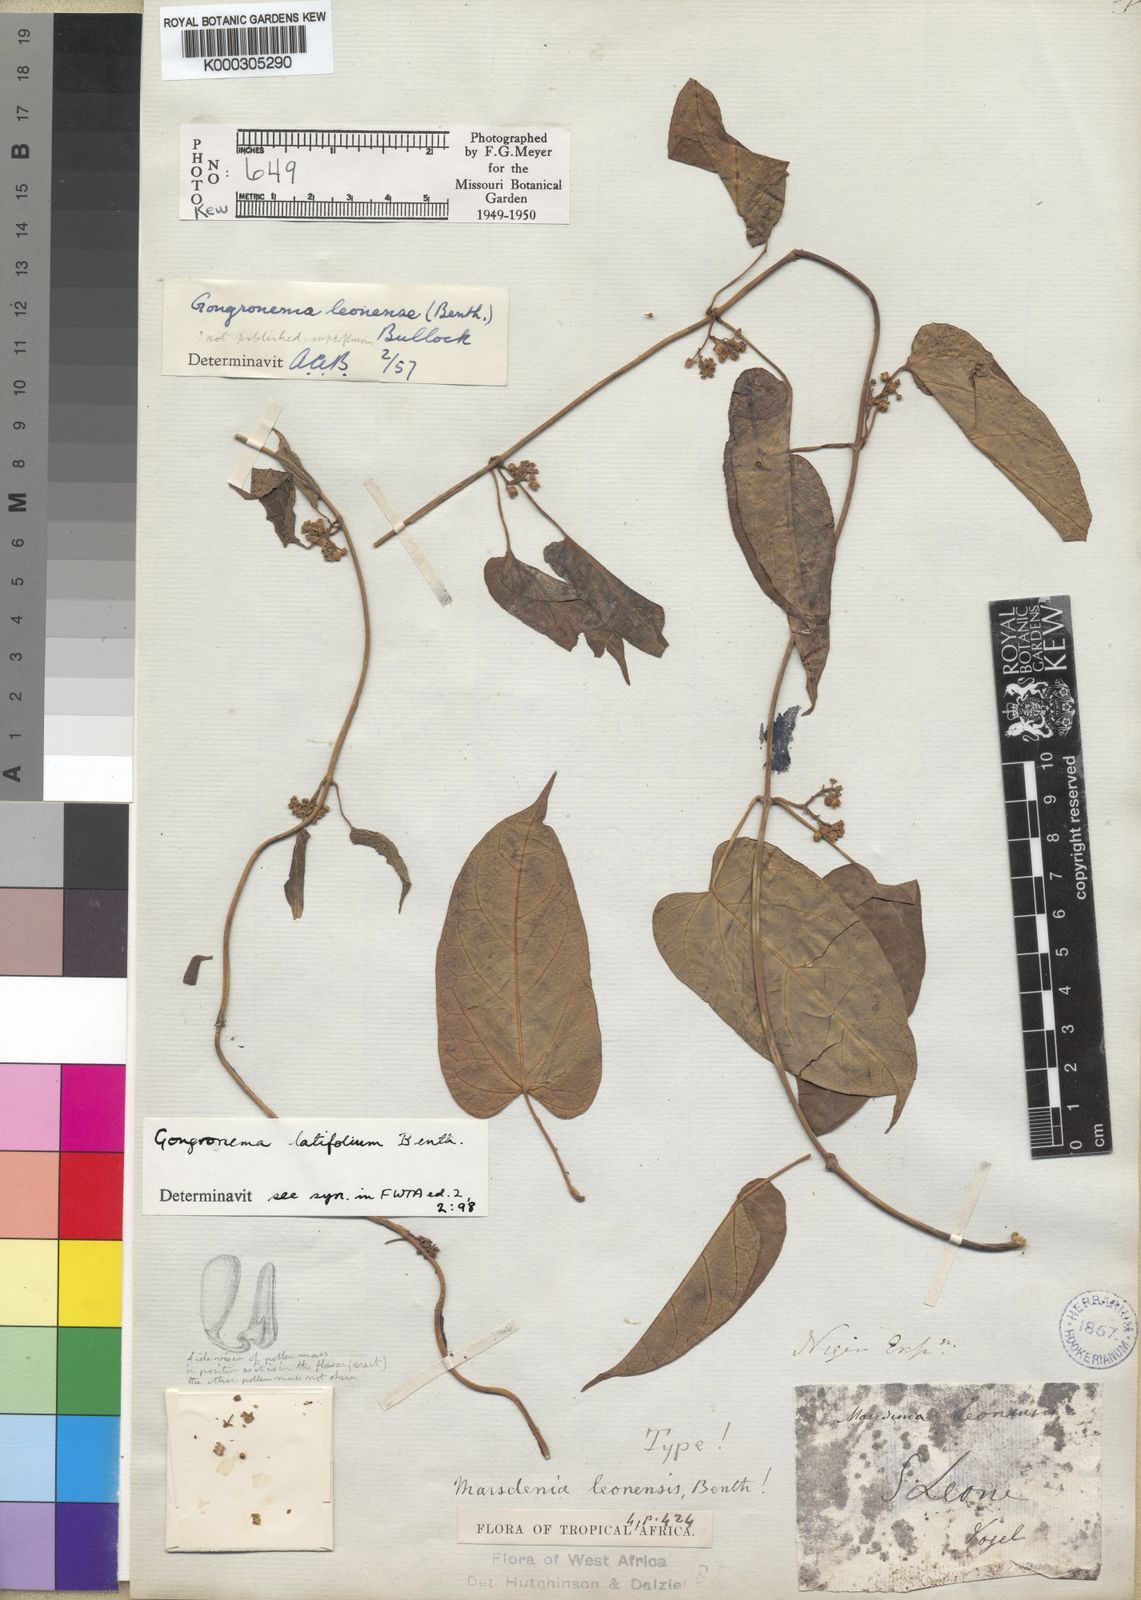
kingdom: Plantae
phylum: Tracheophyta
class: Magnoliopsida
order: Gentianales
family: Apocynaceae
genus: Gongronemopsis
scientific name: Gongronemopsis latifolia
